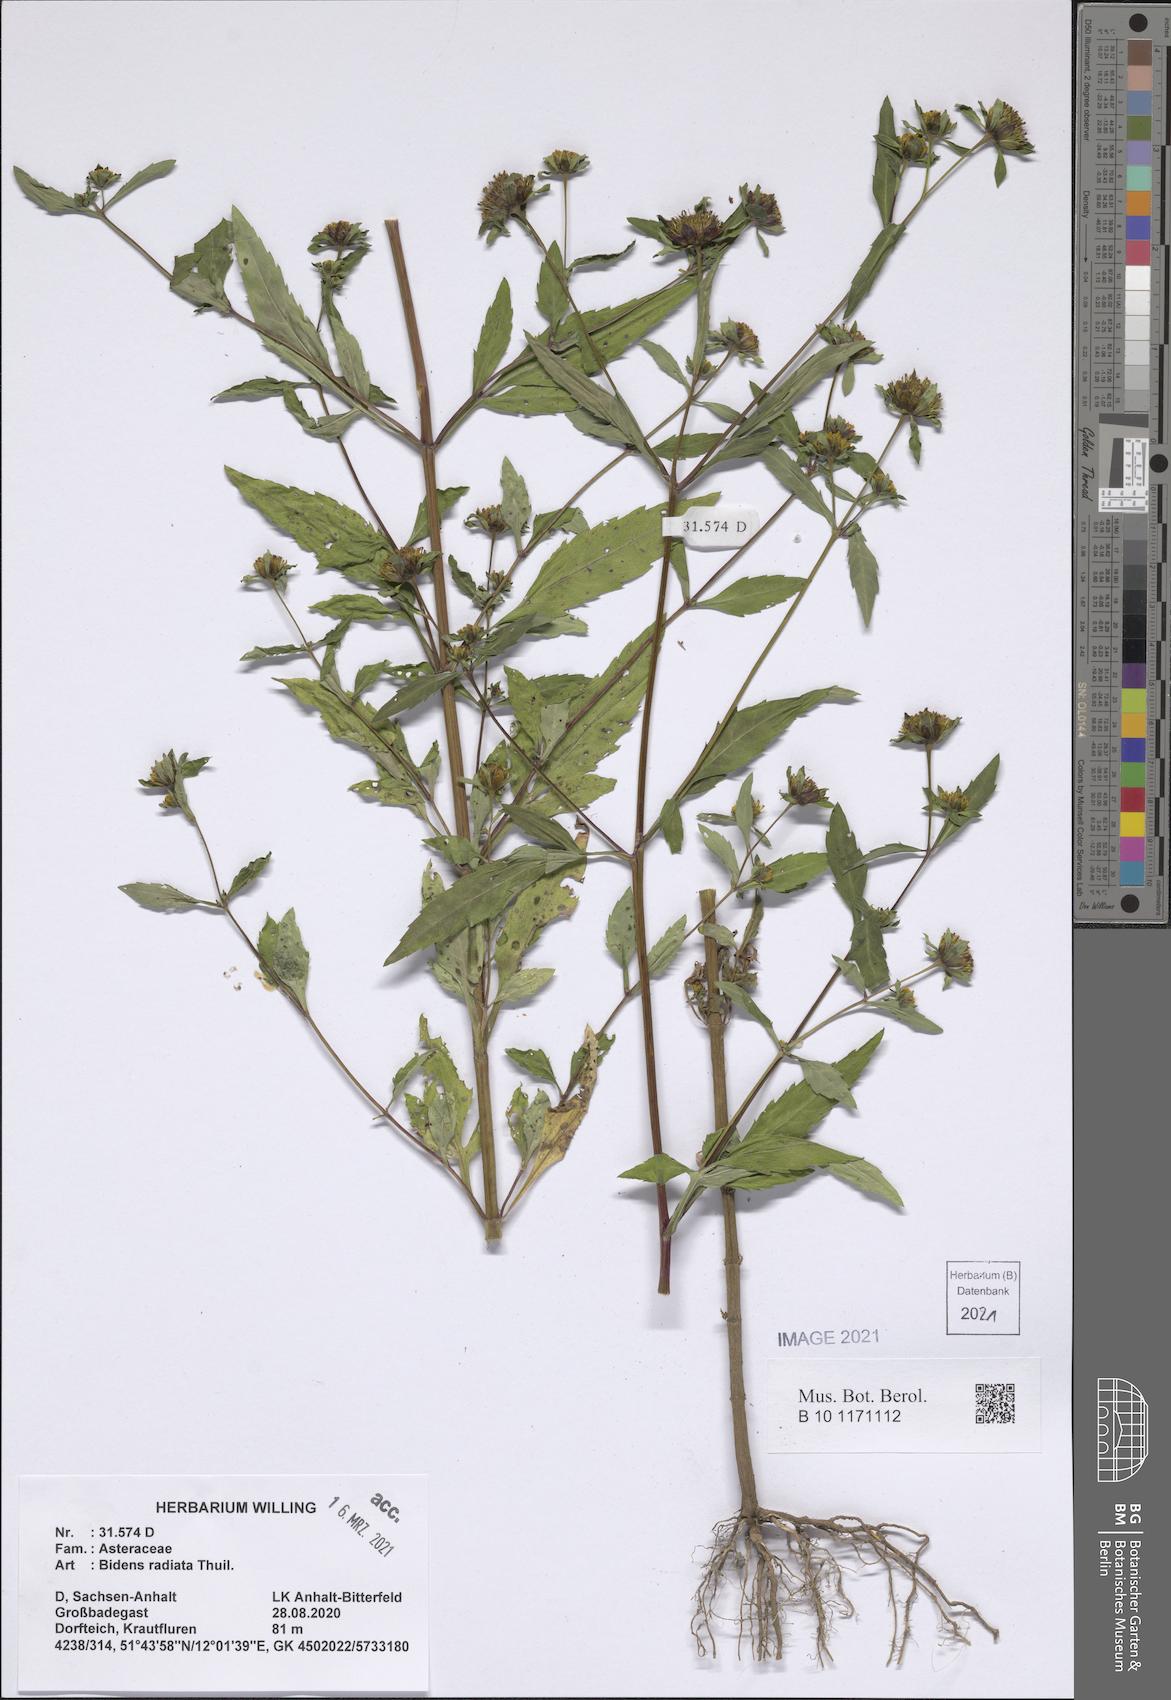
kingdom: Plantae
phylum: Tracheophyta
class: Magnoliopsida
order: Asterales
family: Asteraceae
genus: Bidens
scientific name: Bidens radiata
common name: Radiating bur-marigold
